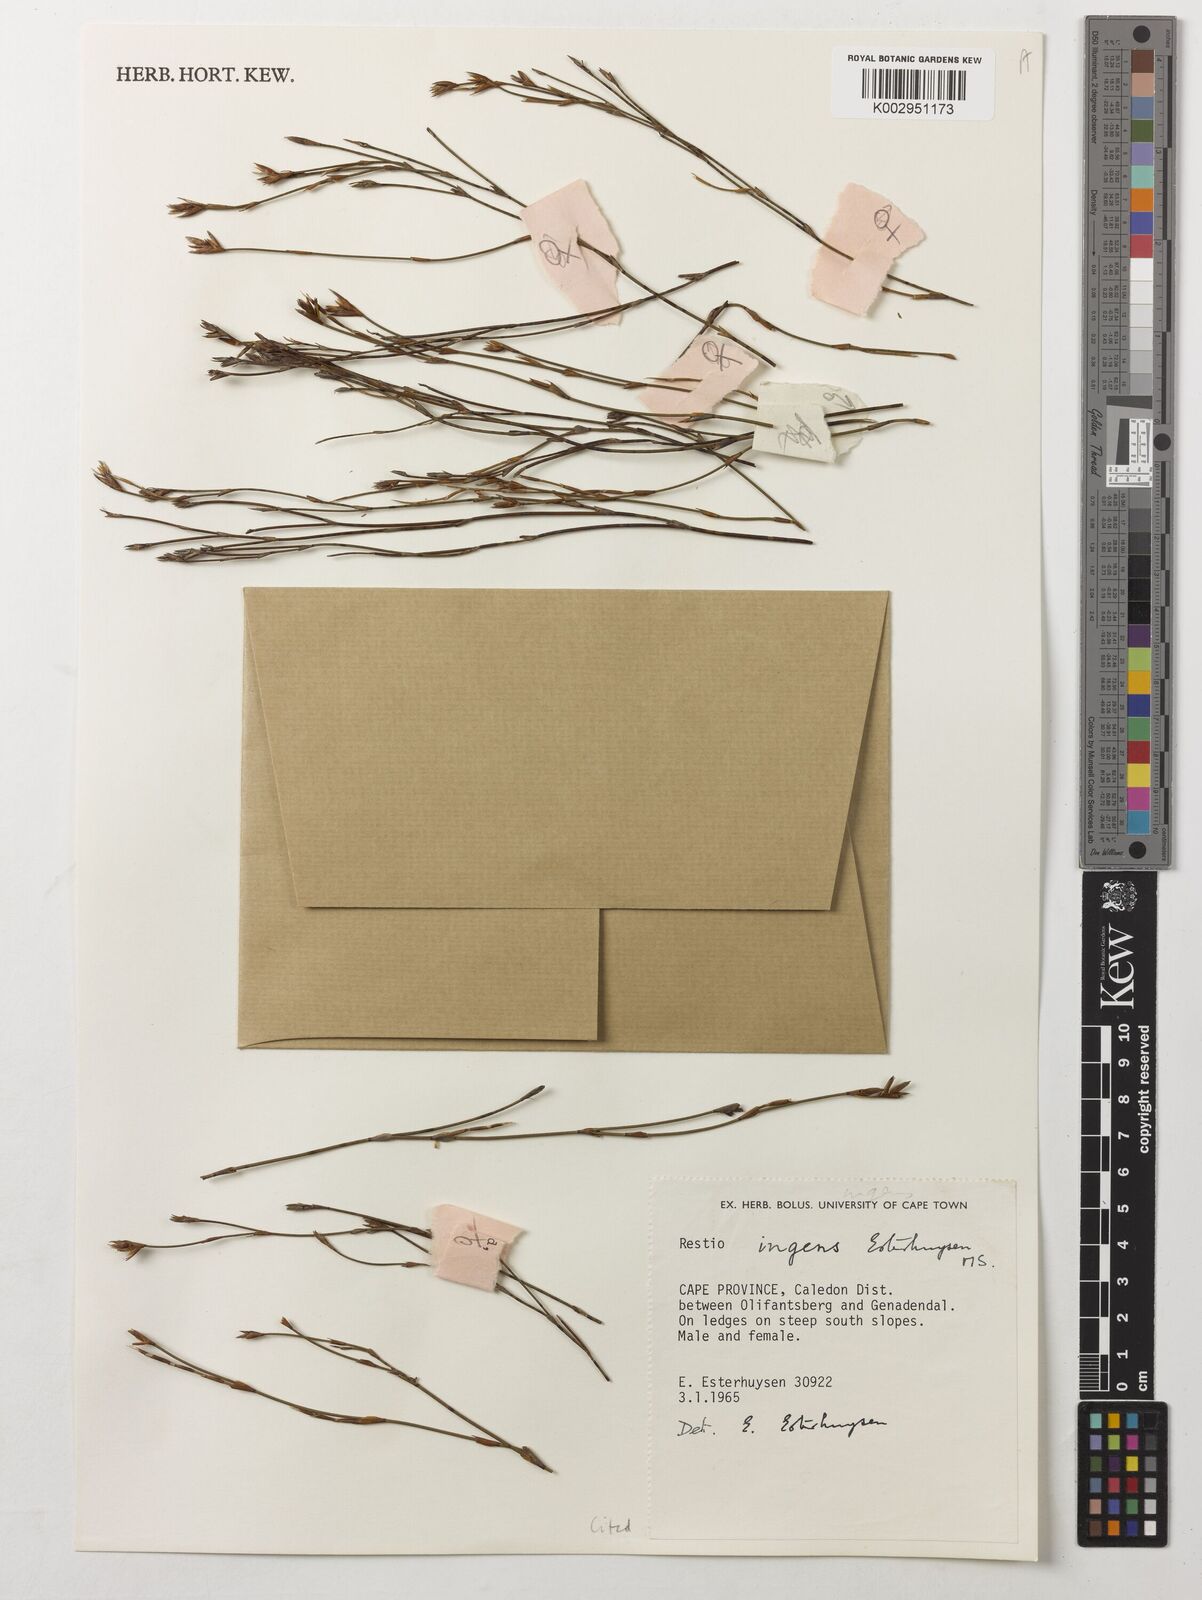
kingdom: Plantae
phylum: Tracheophyta
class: Liliopsida
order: Poales
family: Restionaceae
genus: Restio
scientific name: Restio ingens
